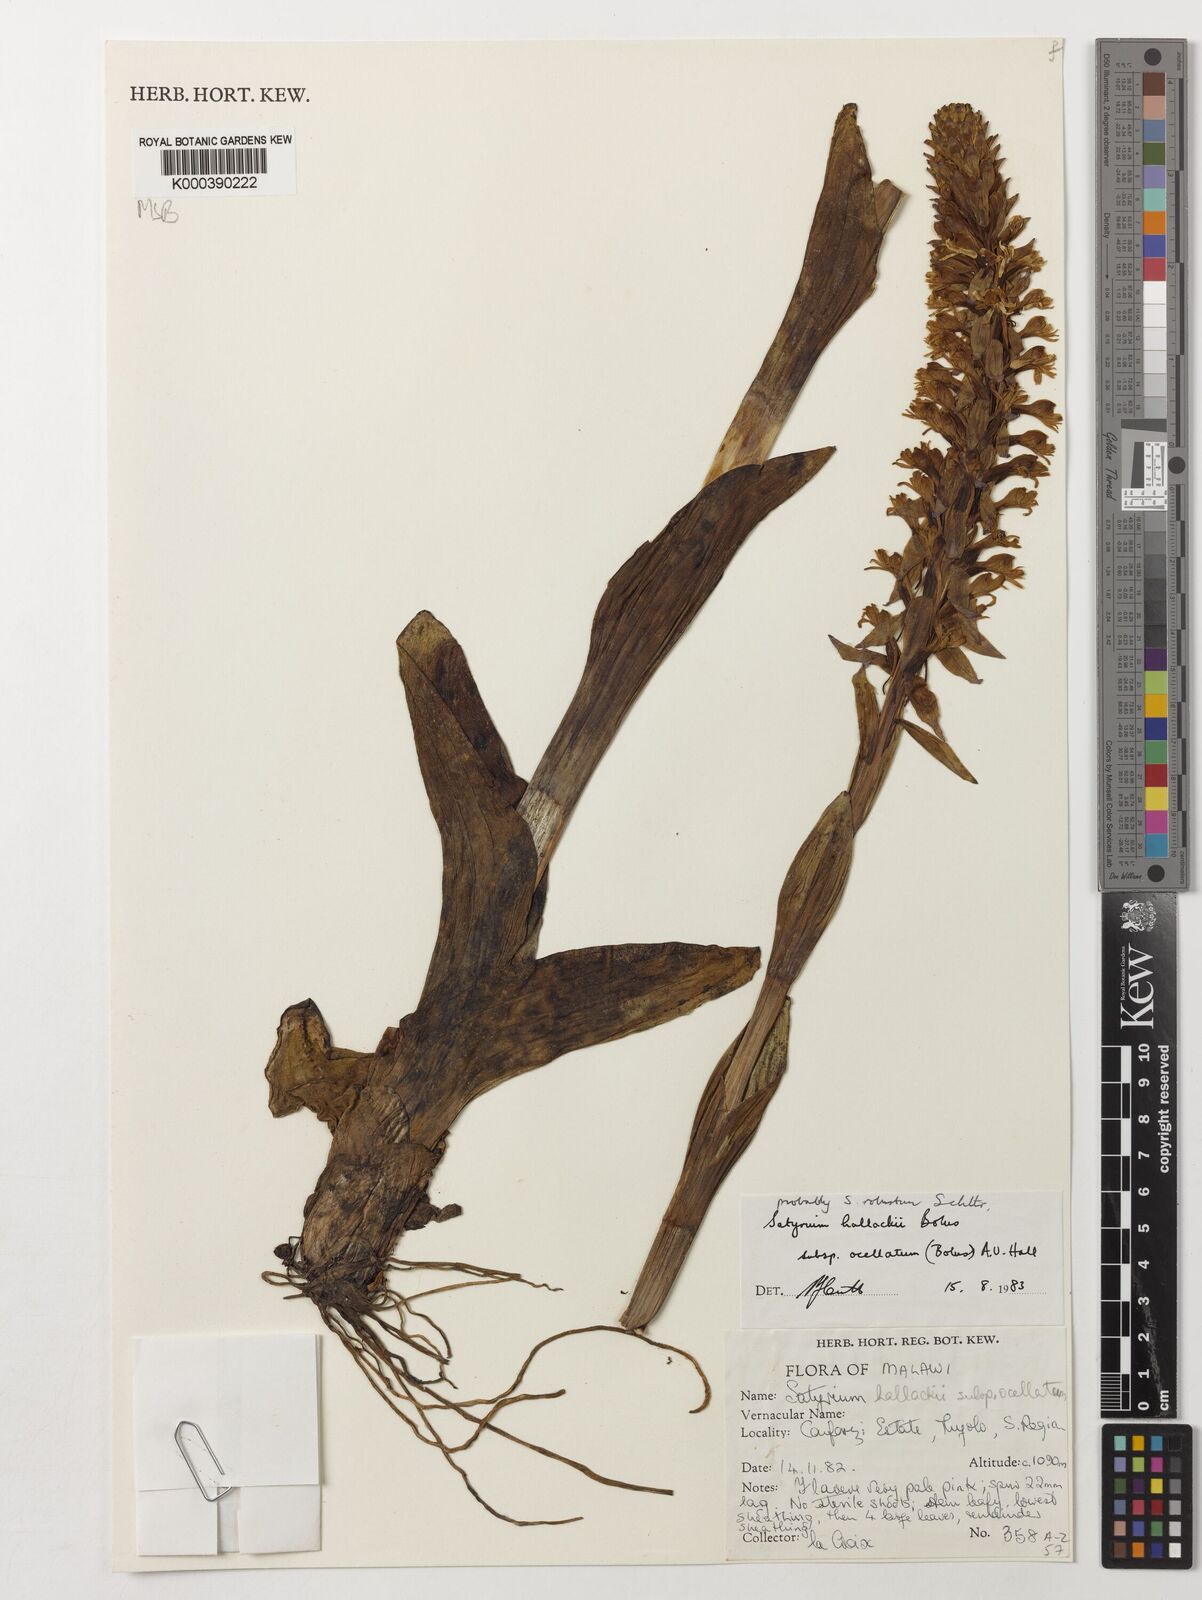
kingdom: Plantae
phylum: Tracheophyta
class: Liliopsida
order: Asparagales
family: Orchidaceae
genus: Satyrium
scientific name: Satyrium robustum
